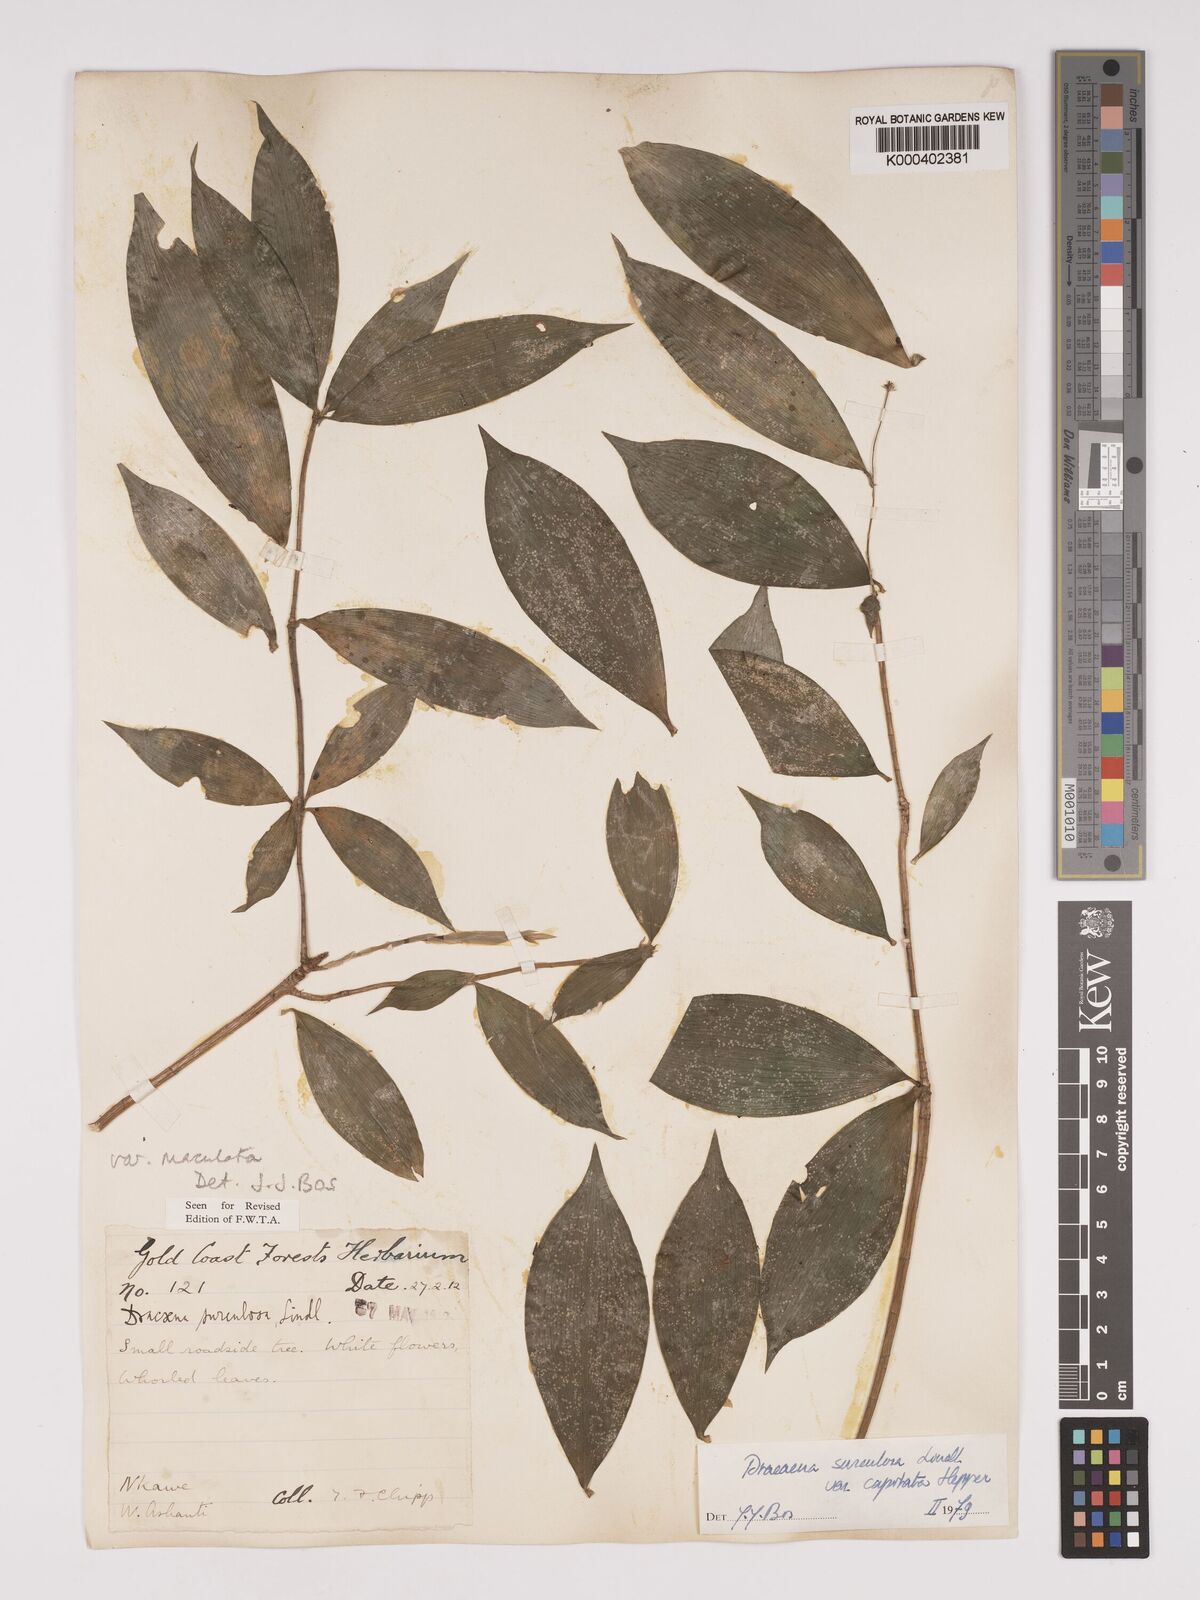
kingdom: Plantae
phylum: Tracheophyta
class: Liliopsida
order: Asparagales
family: Asparagaceae
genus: Dracaena
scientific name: Dracaena surculosa
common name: Spotted dracaena
